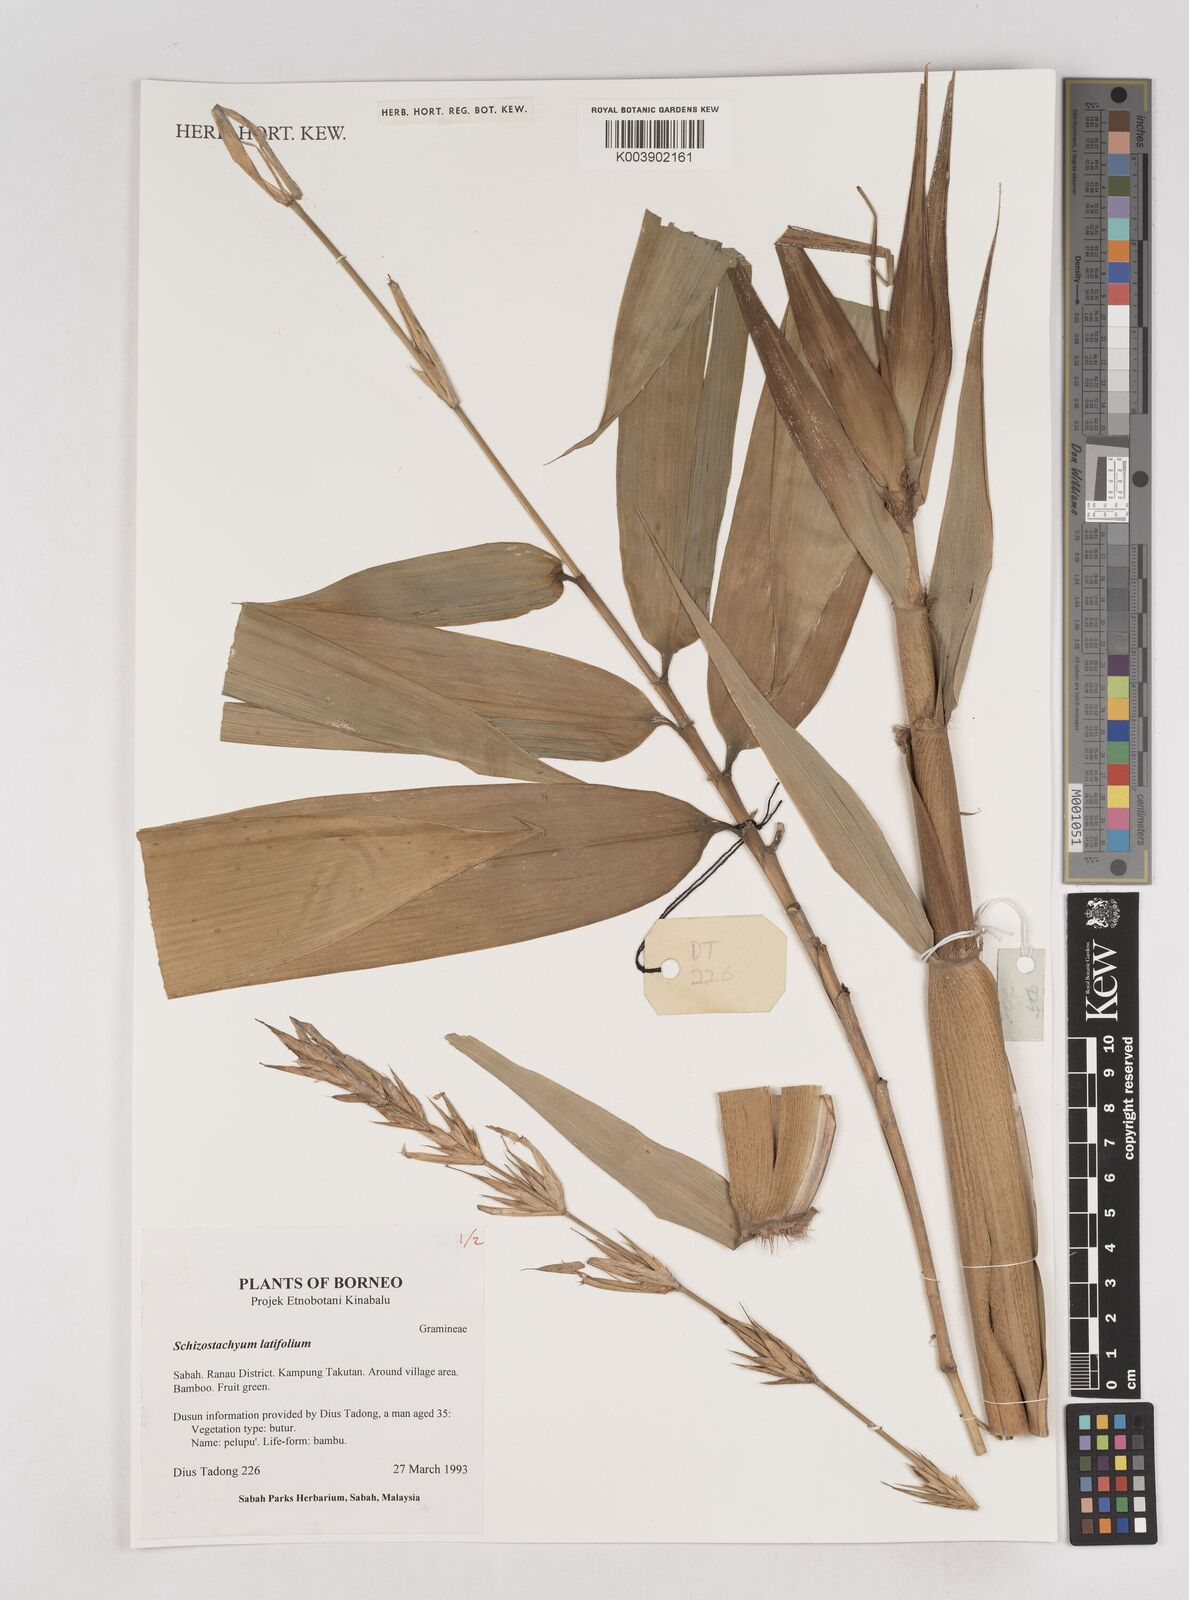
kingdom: Plantae
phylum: Tracheophyta
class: Liliopsida
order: Poales
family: Poaceae
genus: Schizostachyum
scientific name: Schizostachyum latifolium
